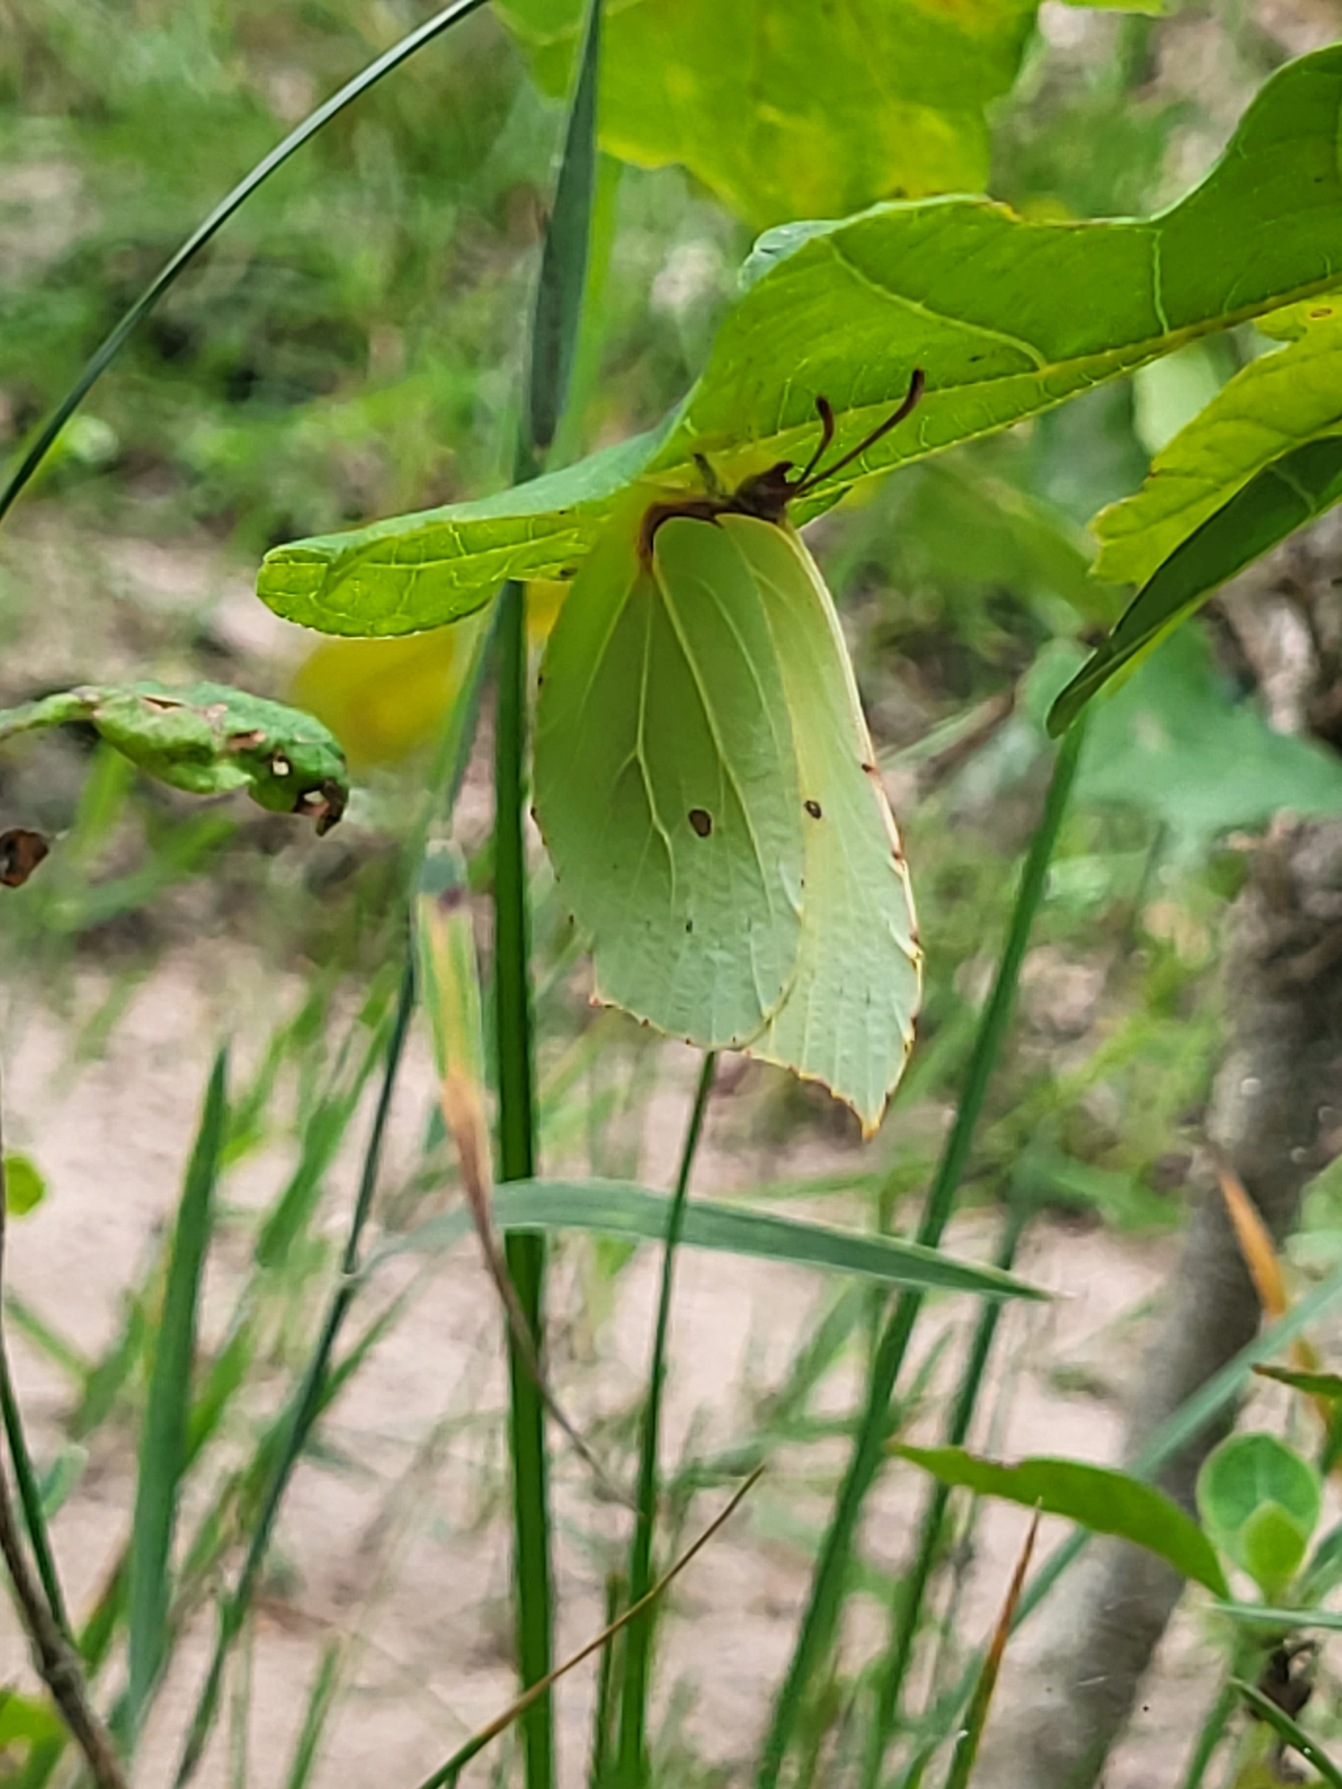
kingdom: Animalia
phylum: Arthropoda
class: Insecta
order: Lepidoptera
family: Pieridae
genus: Gonepteryx
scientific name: Gonepteryx rhamni
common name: Citronsommerfugl
